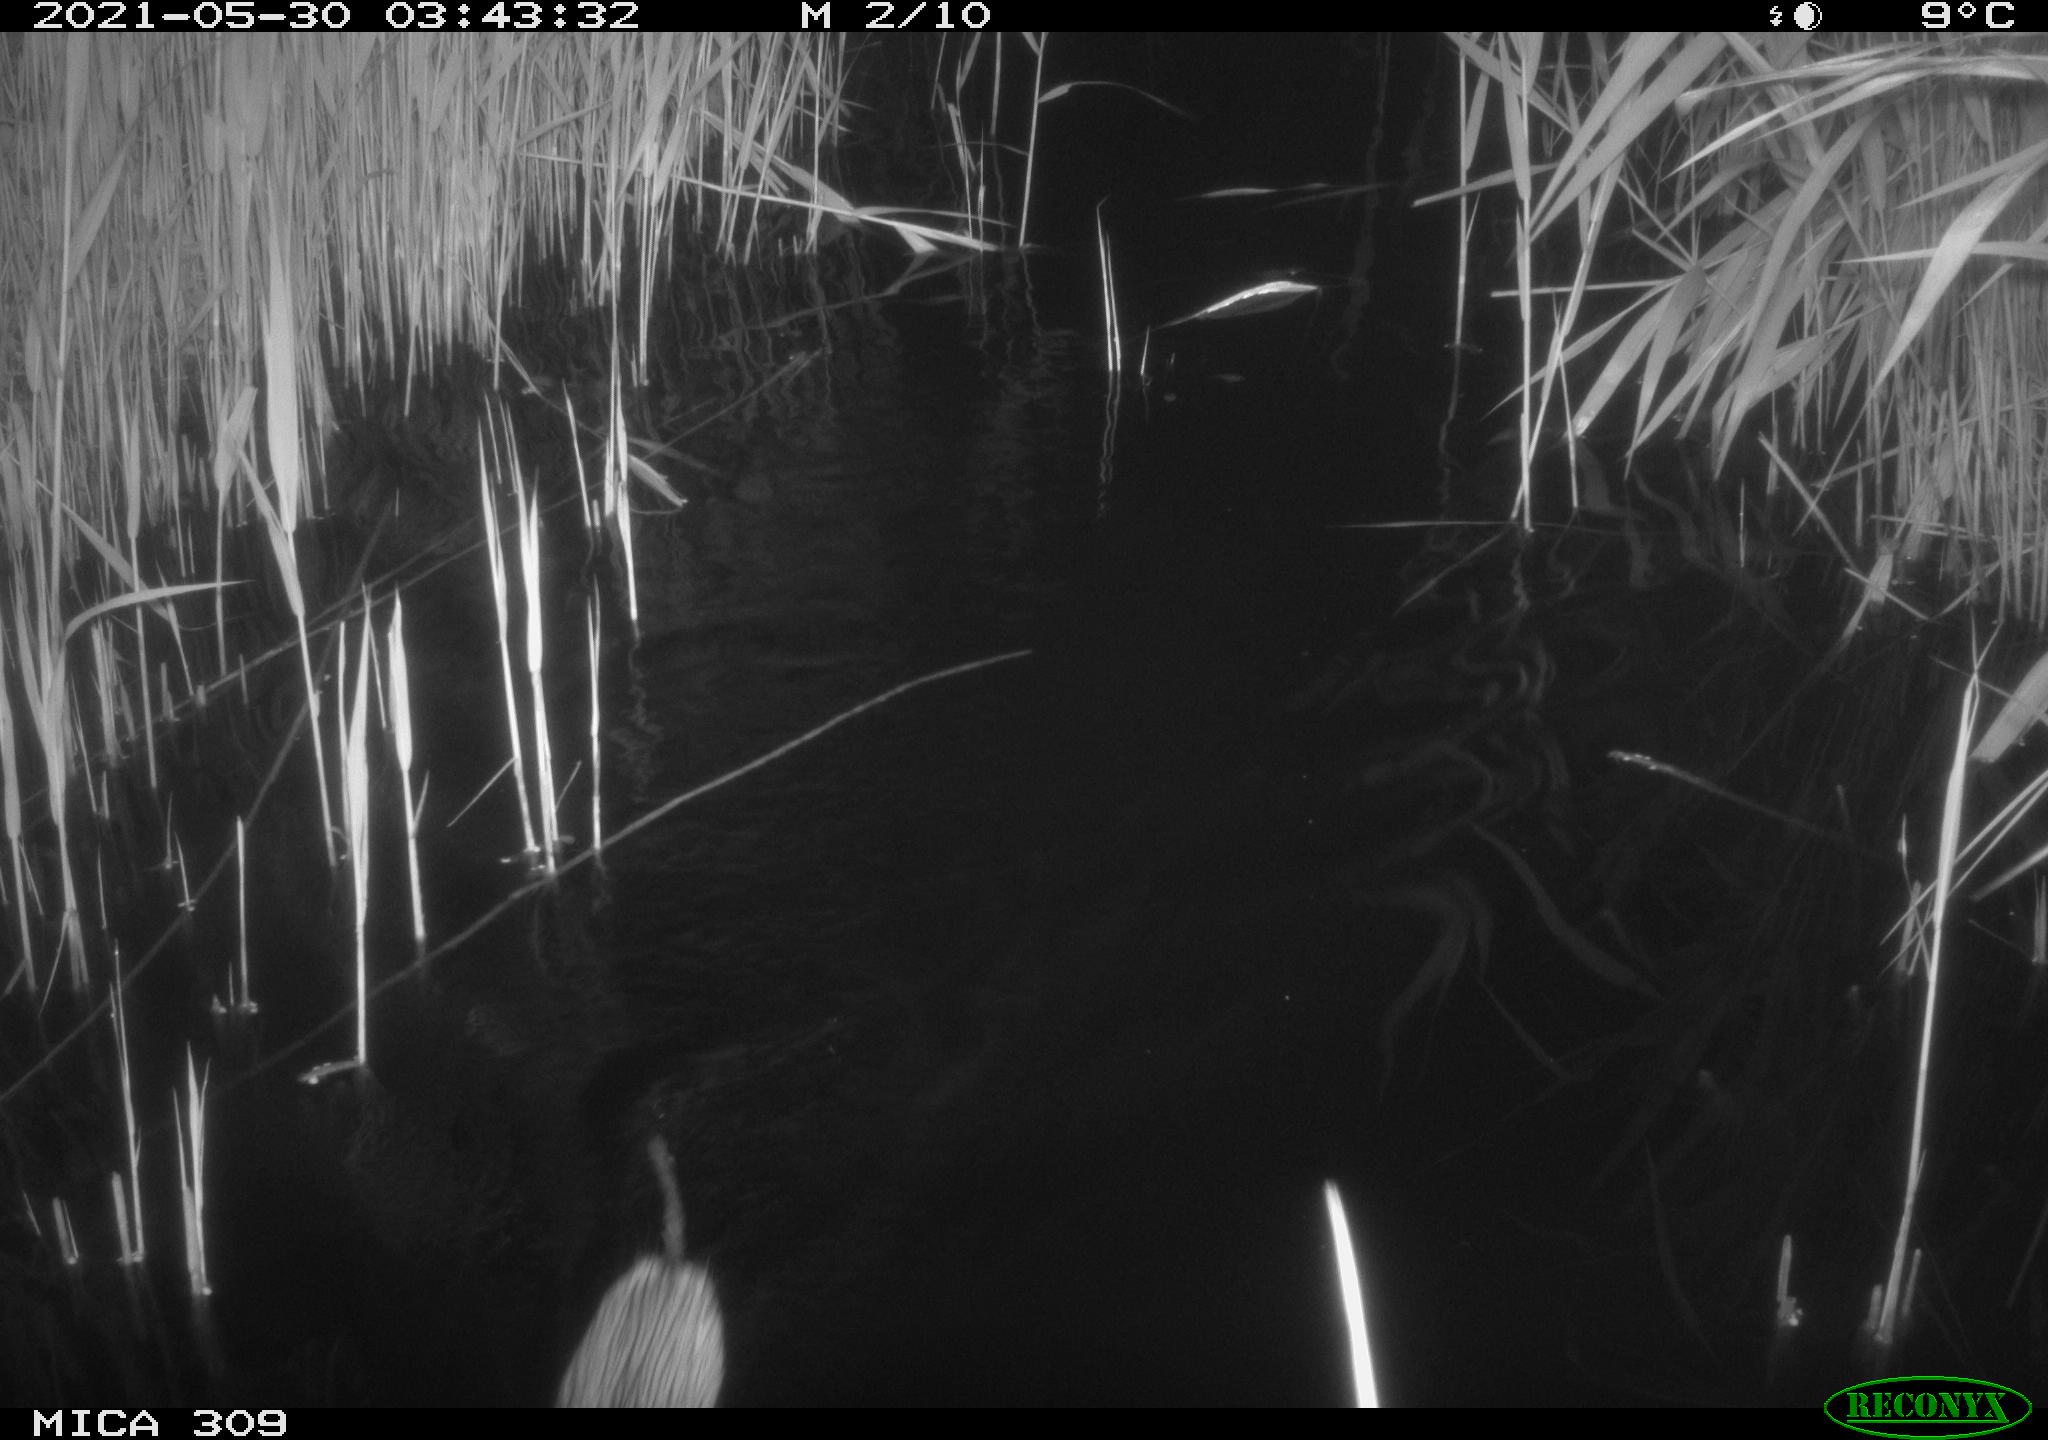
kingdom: Animalia
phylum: Chordata
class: Mammalia
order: Rodentia
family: Cricetidae
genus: Ondatra
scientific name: Ondatra zibethicus
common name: Muskrat
